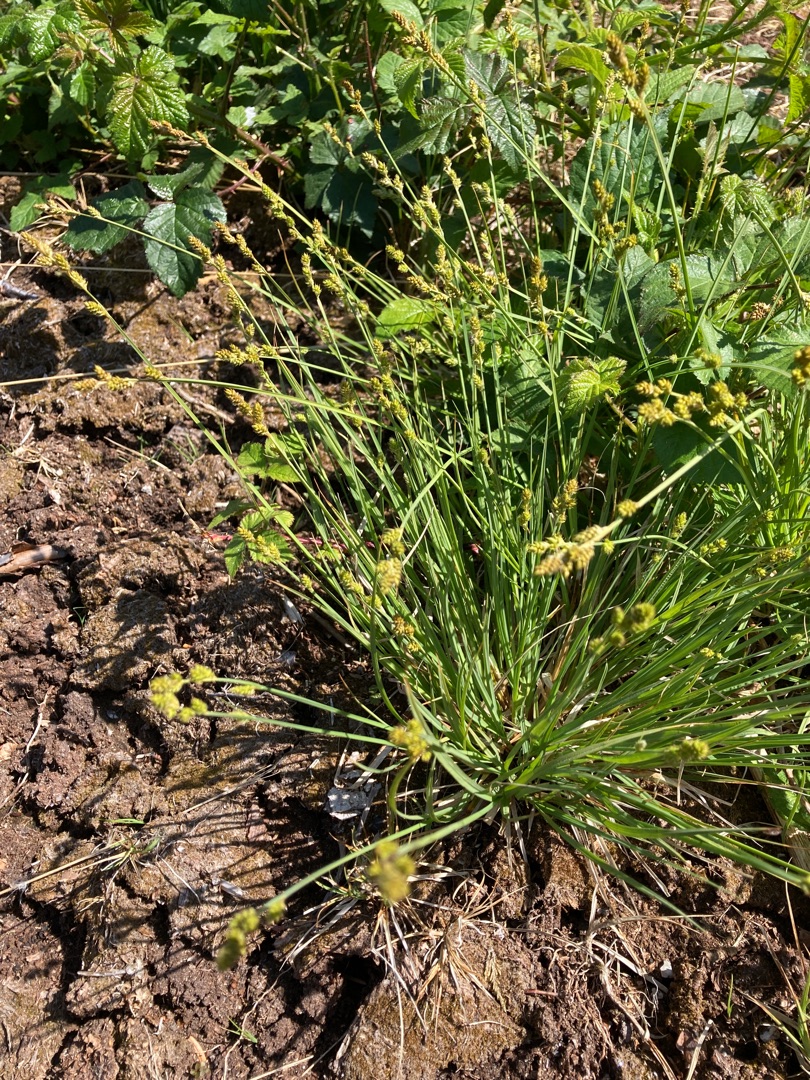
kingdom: Plantae
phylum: Tracheophyta
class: Liliopsida
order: Poales
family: Cyperaceae
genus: Carex
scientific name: Carex canescens
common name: Grå star
